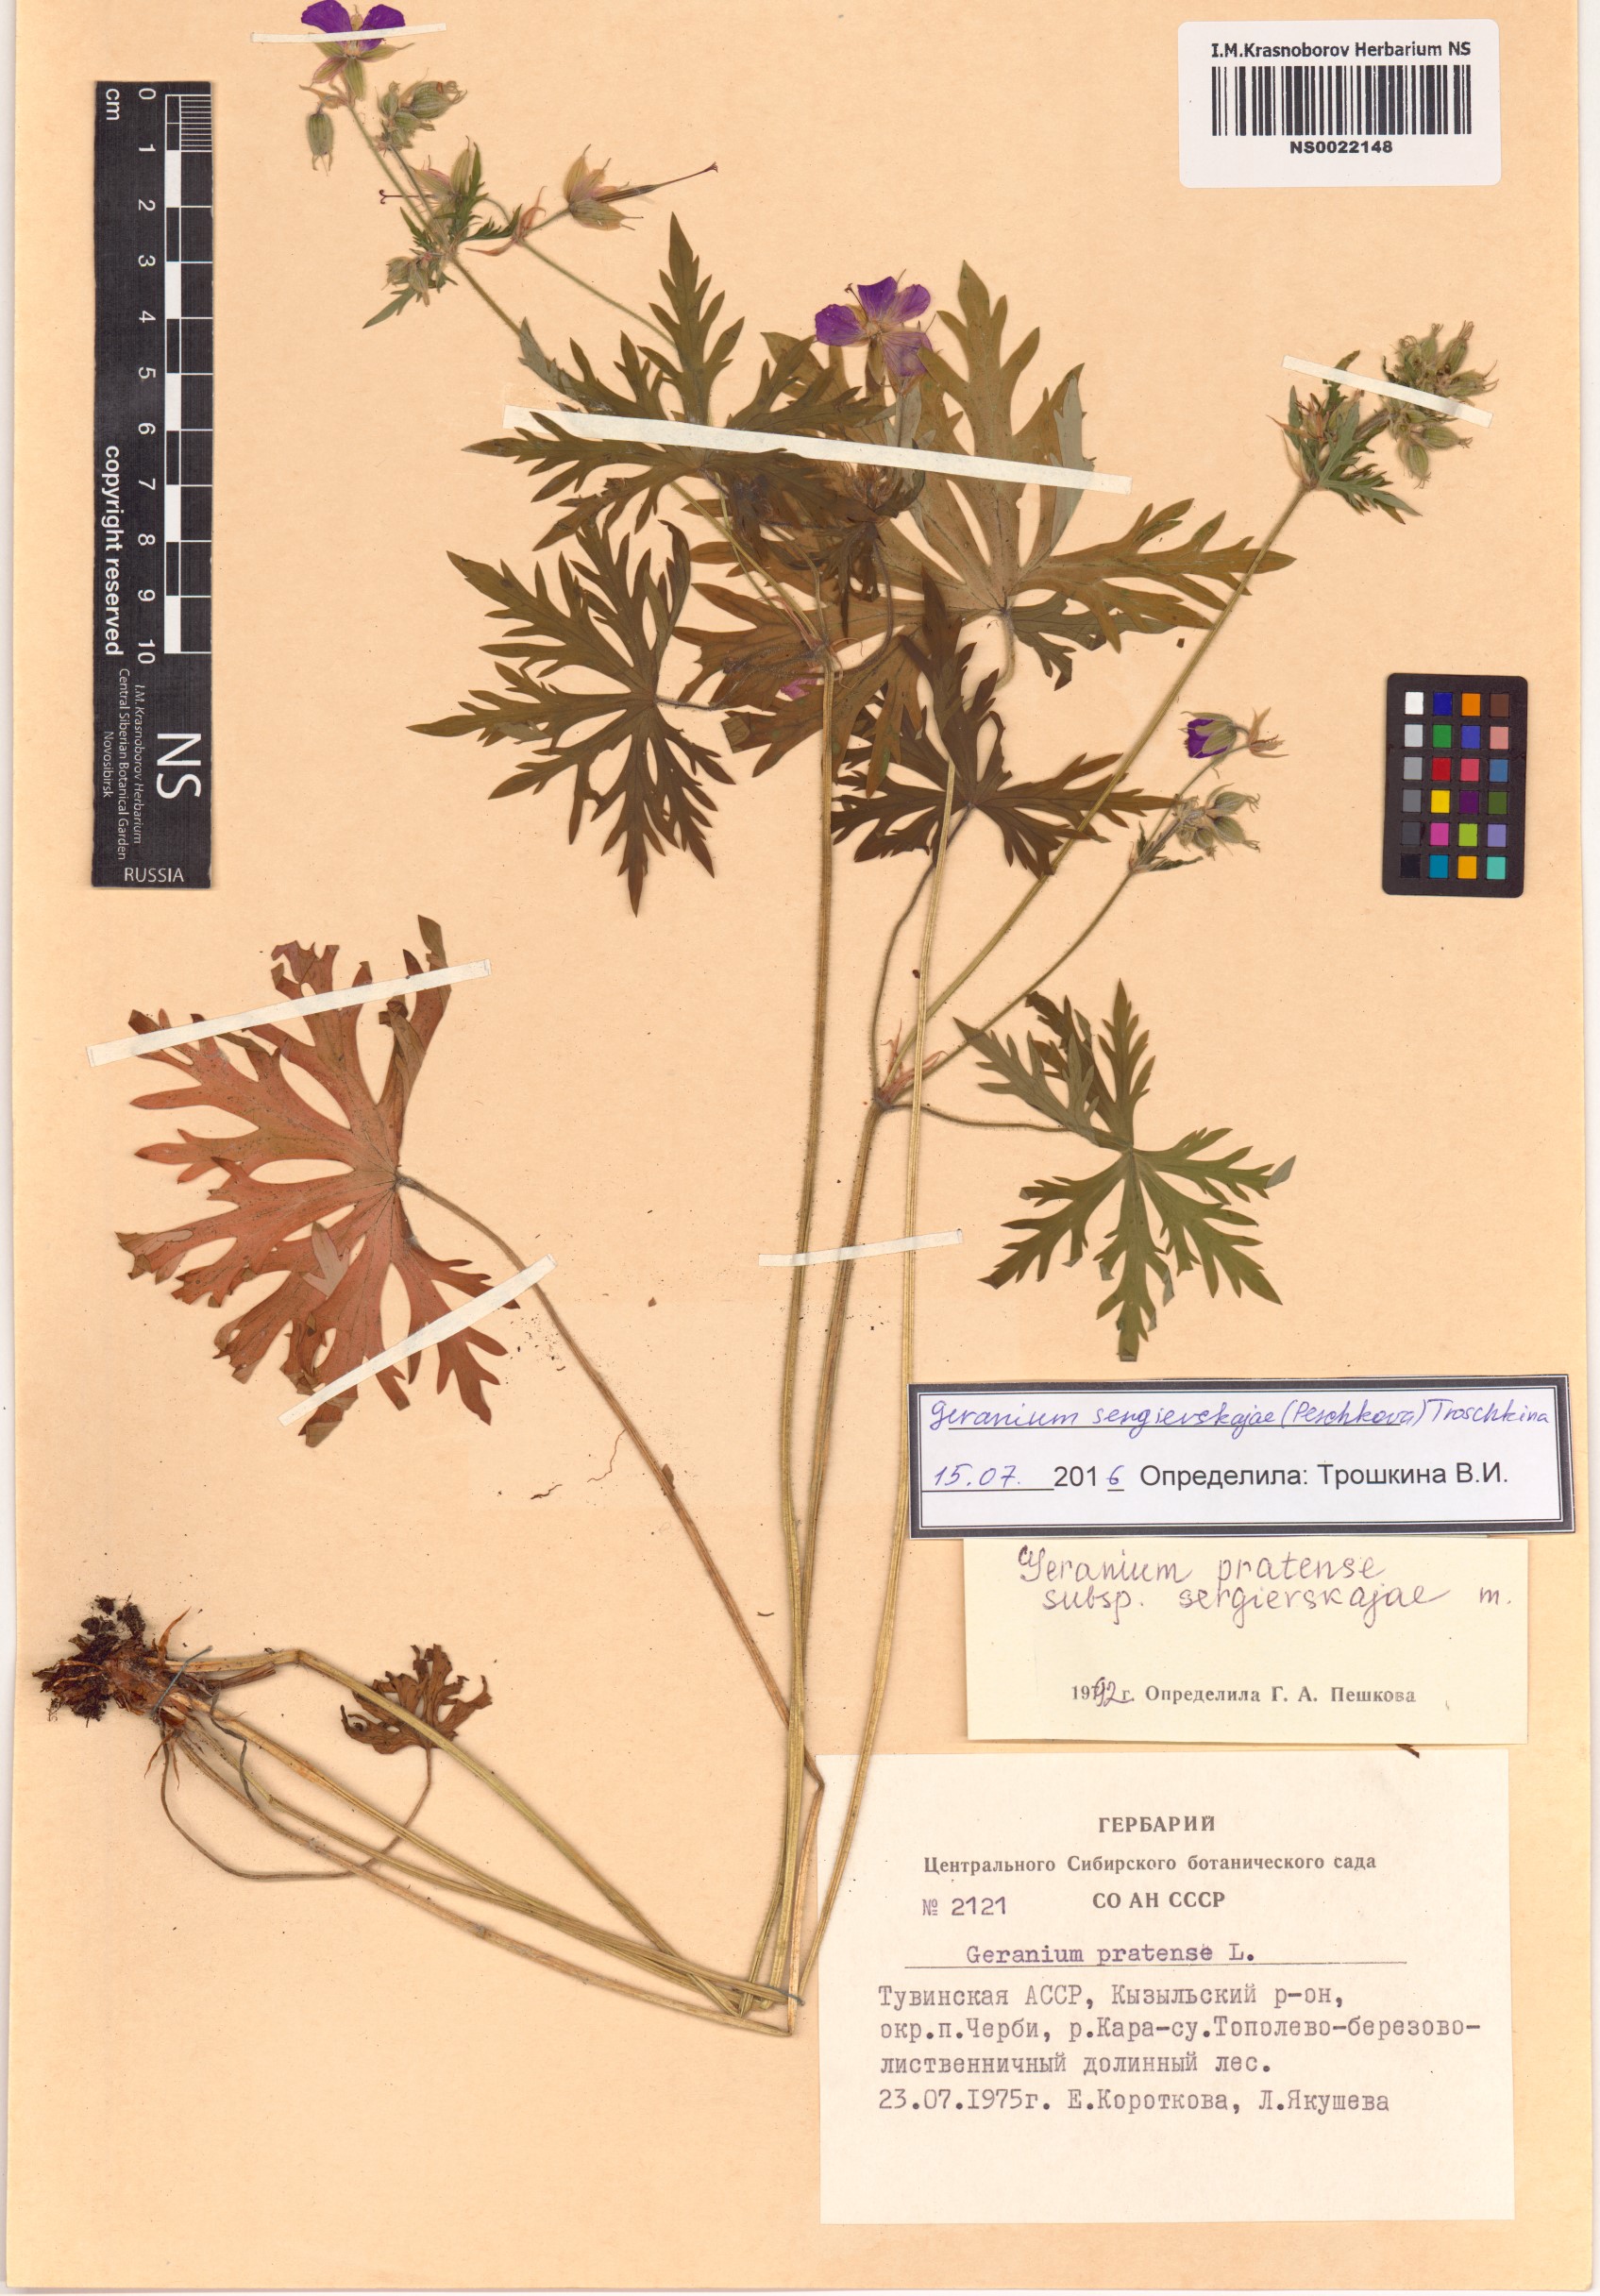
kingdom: Plantae
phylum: Tracheophyta
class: Magnoliopsida
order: Geraniales
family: Geraniaceae
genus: Geranium
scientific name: Geranium pratense
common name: Meadow crane's-bill
